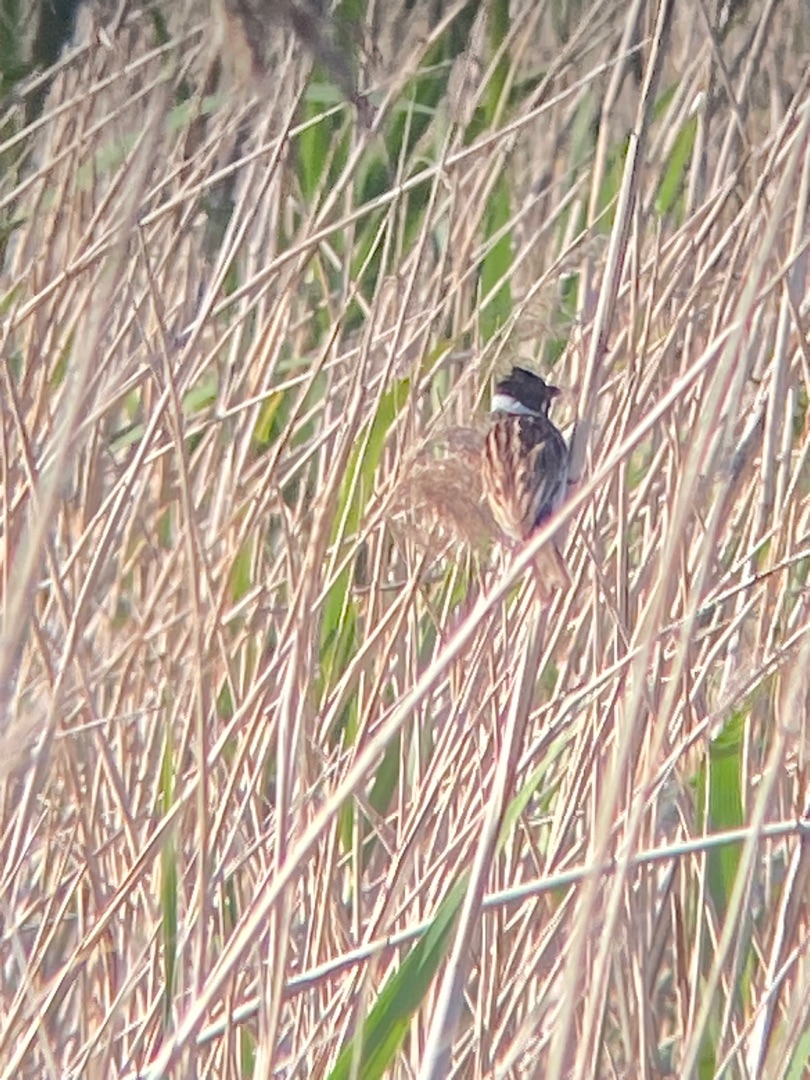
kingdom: Animalia
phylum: Chordata
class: Aves
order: Passeriformes
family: Emberizidae
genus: Emberiza
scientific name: Emberiza schoeniclus
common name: Rørspurv
